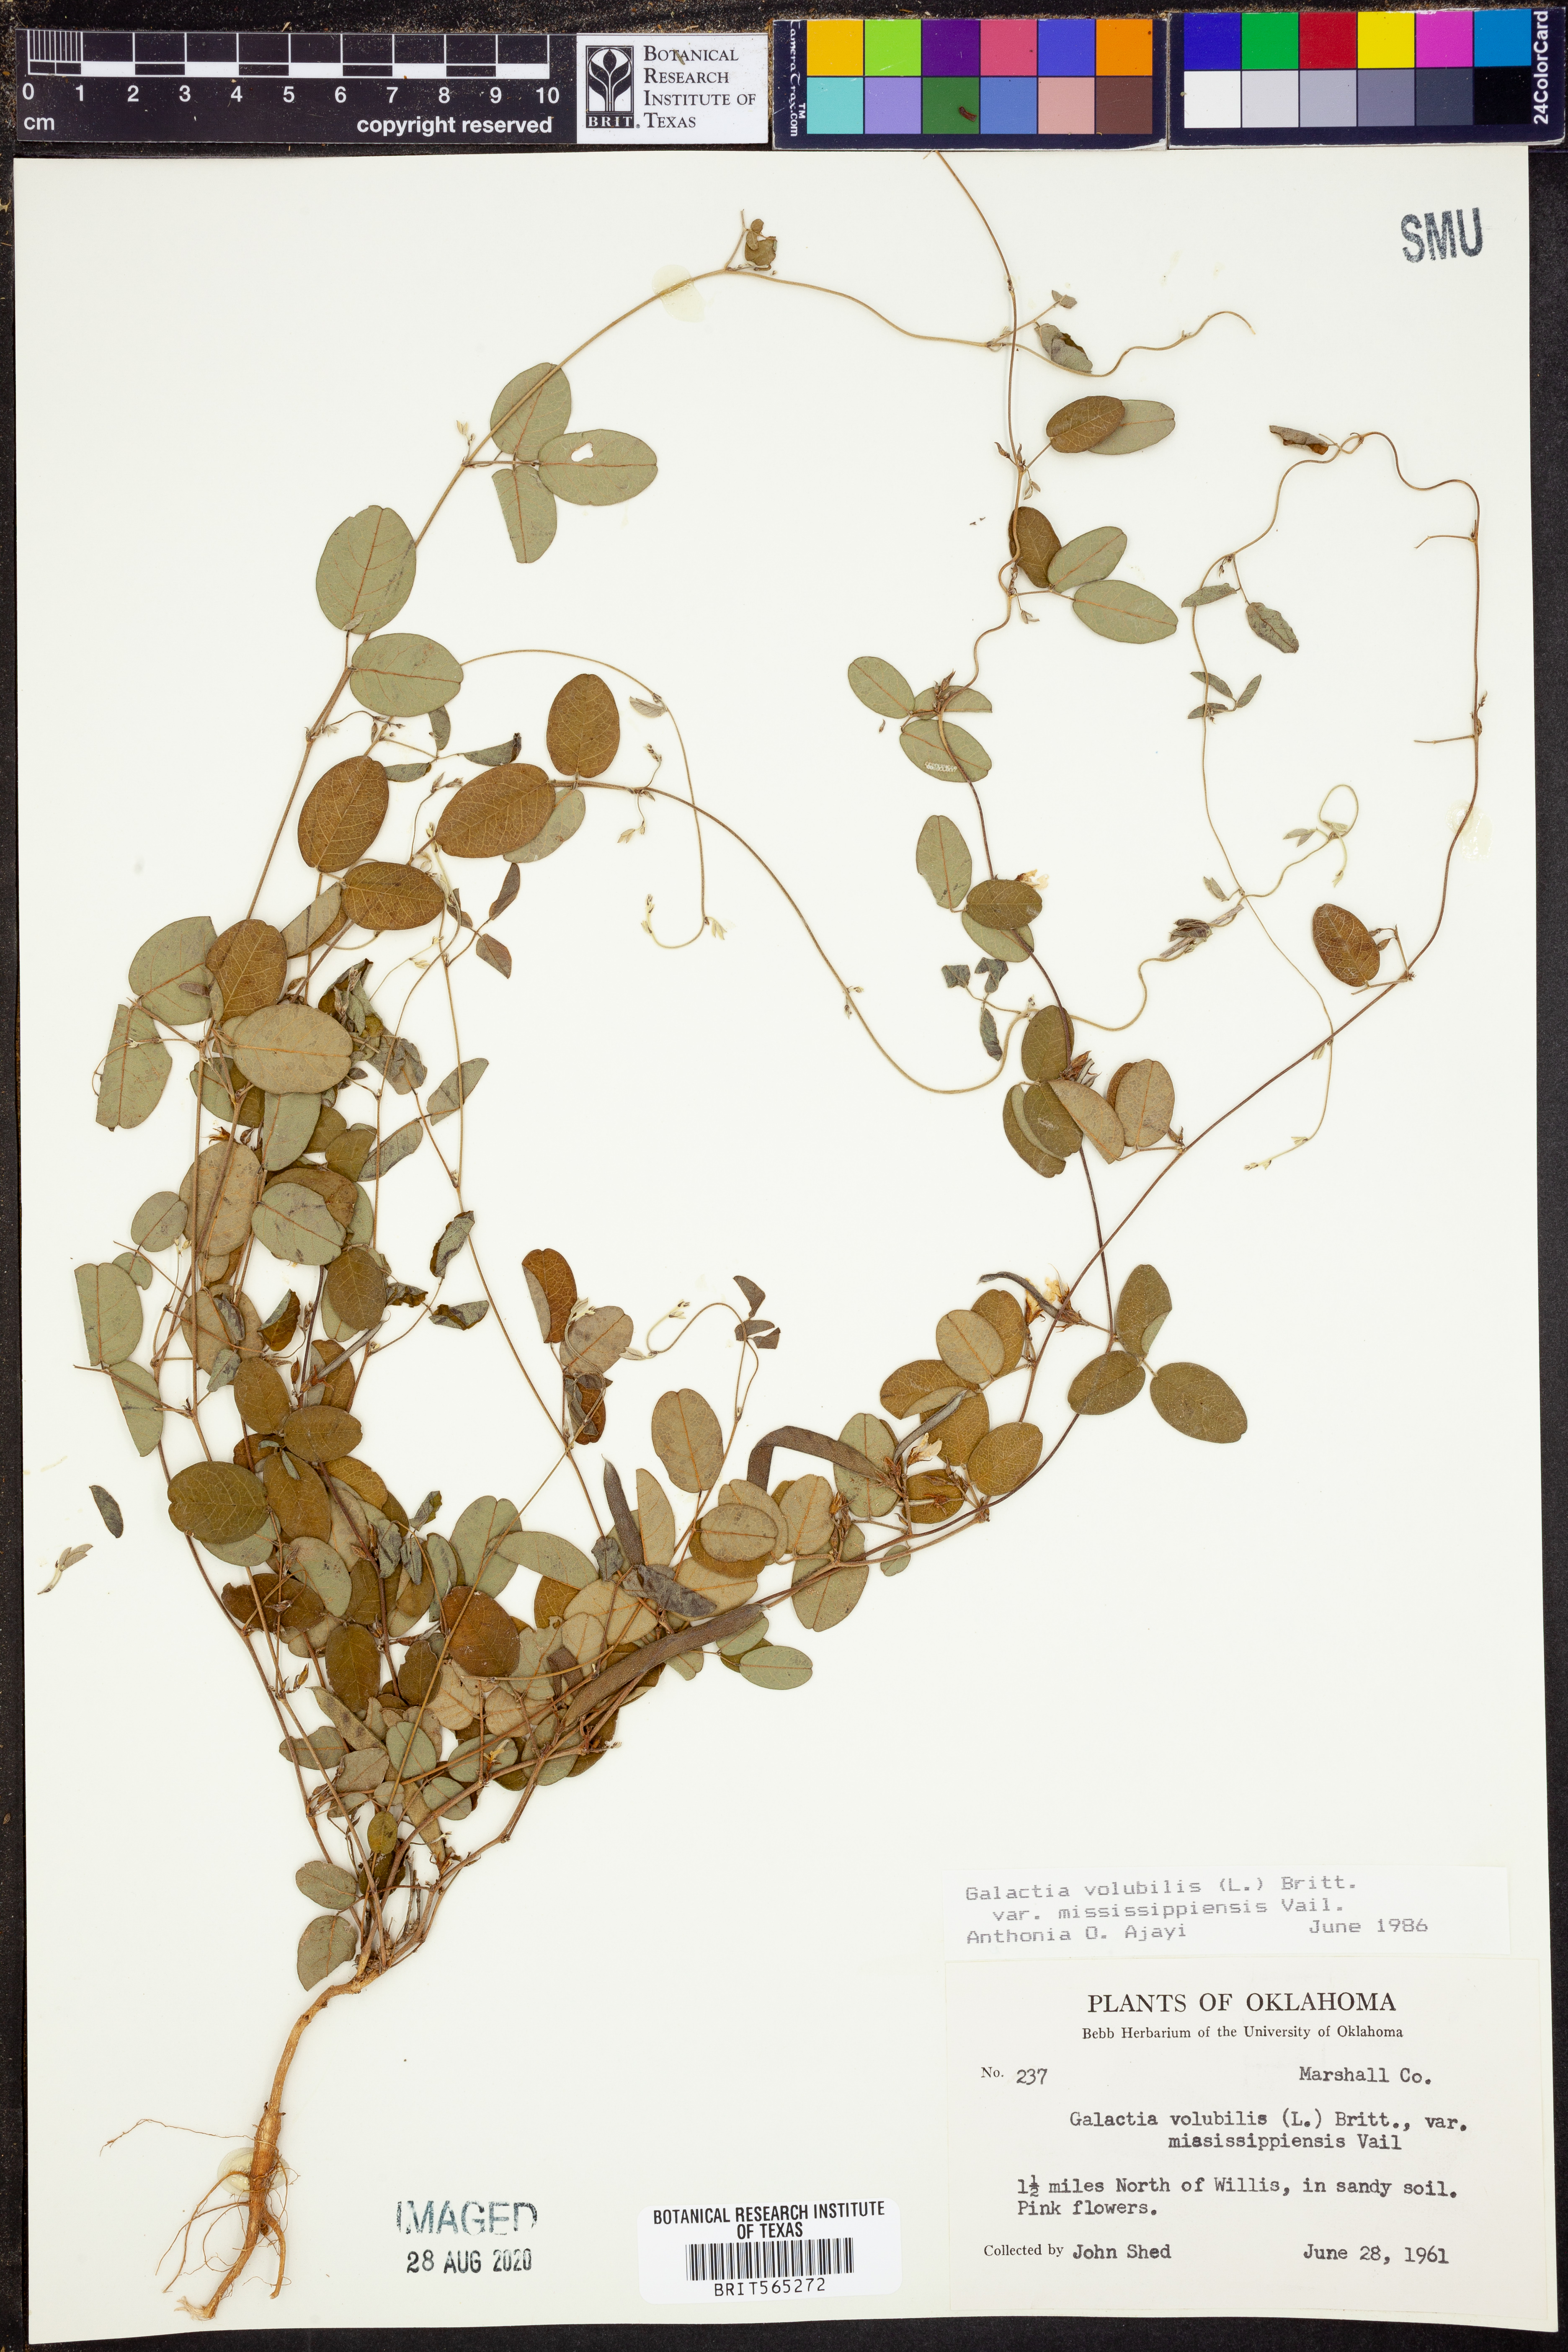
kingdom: Plantae
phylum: Tracheophyta
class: Magnoliopsida
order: Fabales
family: Fabaceae
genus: Galactia
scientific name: Galactia volubilis
